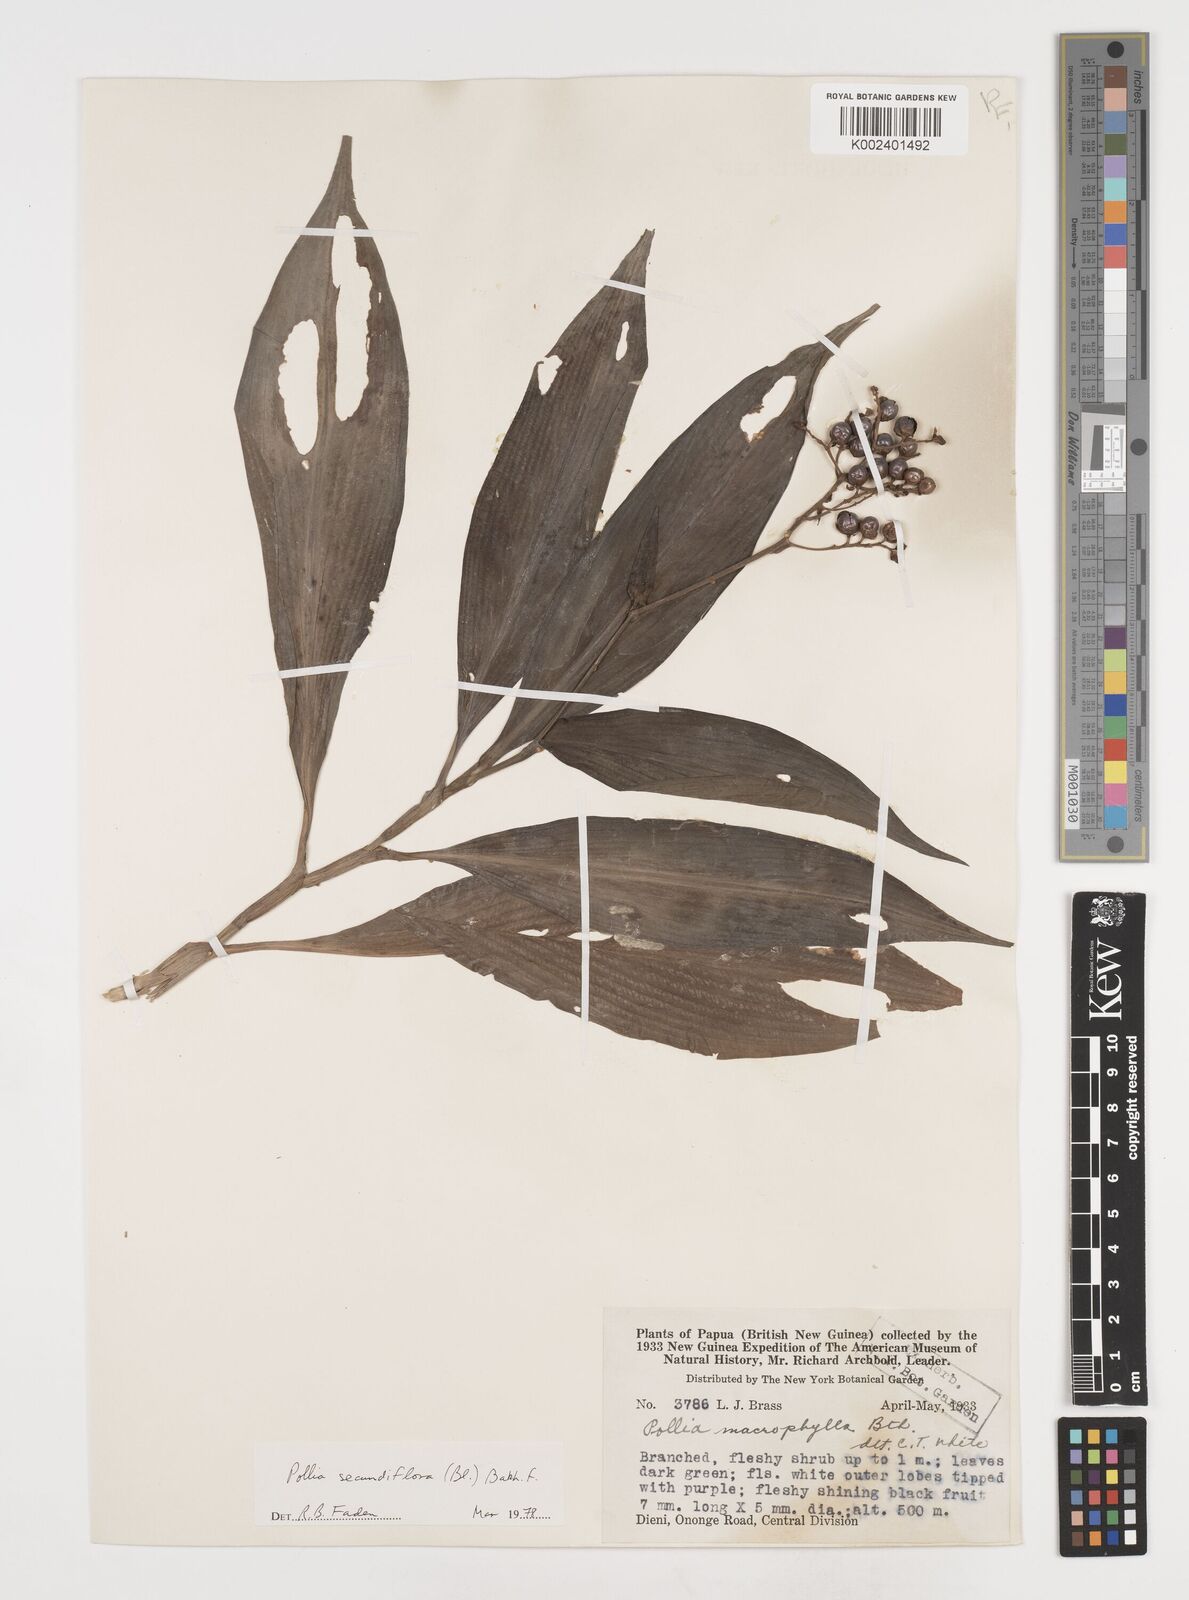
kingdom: Plantae
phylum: Tracheophyta
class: Liliopsida
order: Commelinales
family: Commelinaceae
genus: Pollia
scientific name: Pollia secundiflora
